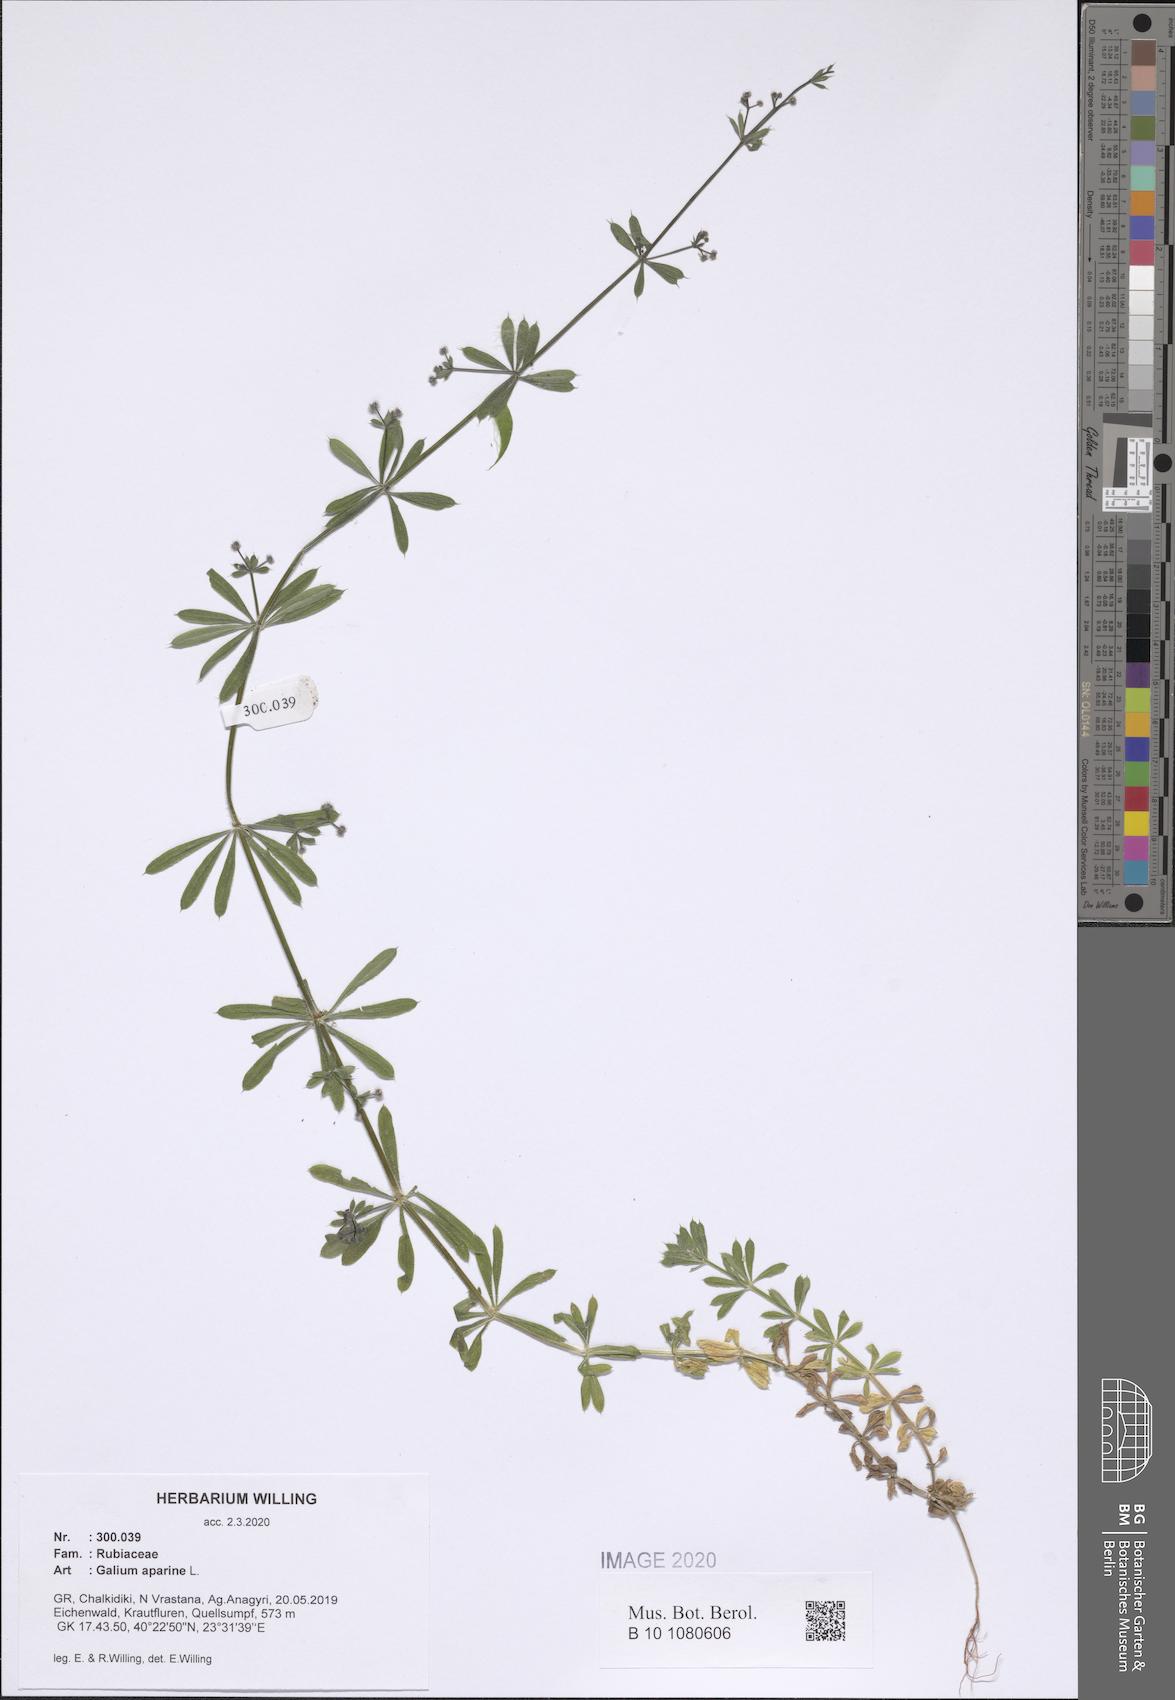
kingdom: Plantae
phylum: Tracheophyta
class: Magnoliopsida
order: Gentianales
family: Rubiaceae
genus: Galium
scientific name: Galium aparine
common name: Cleavers
